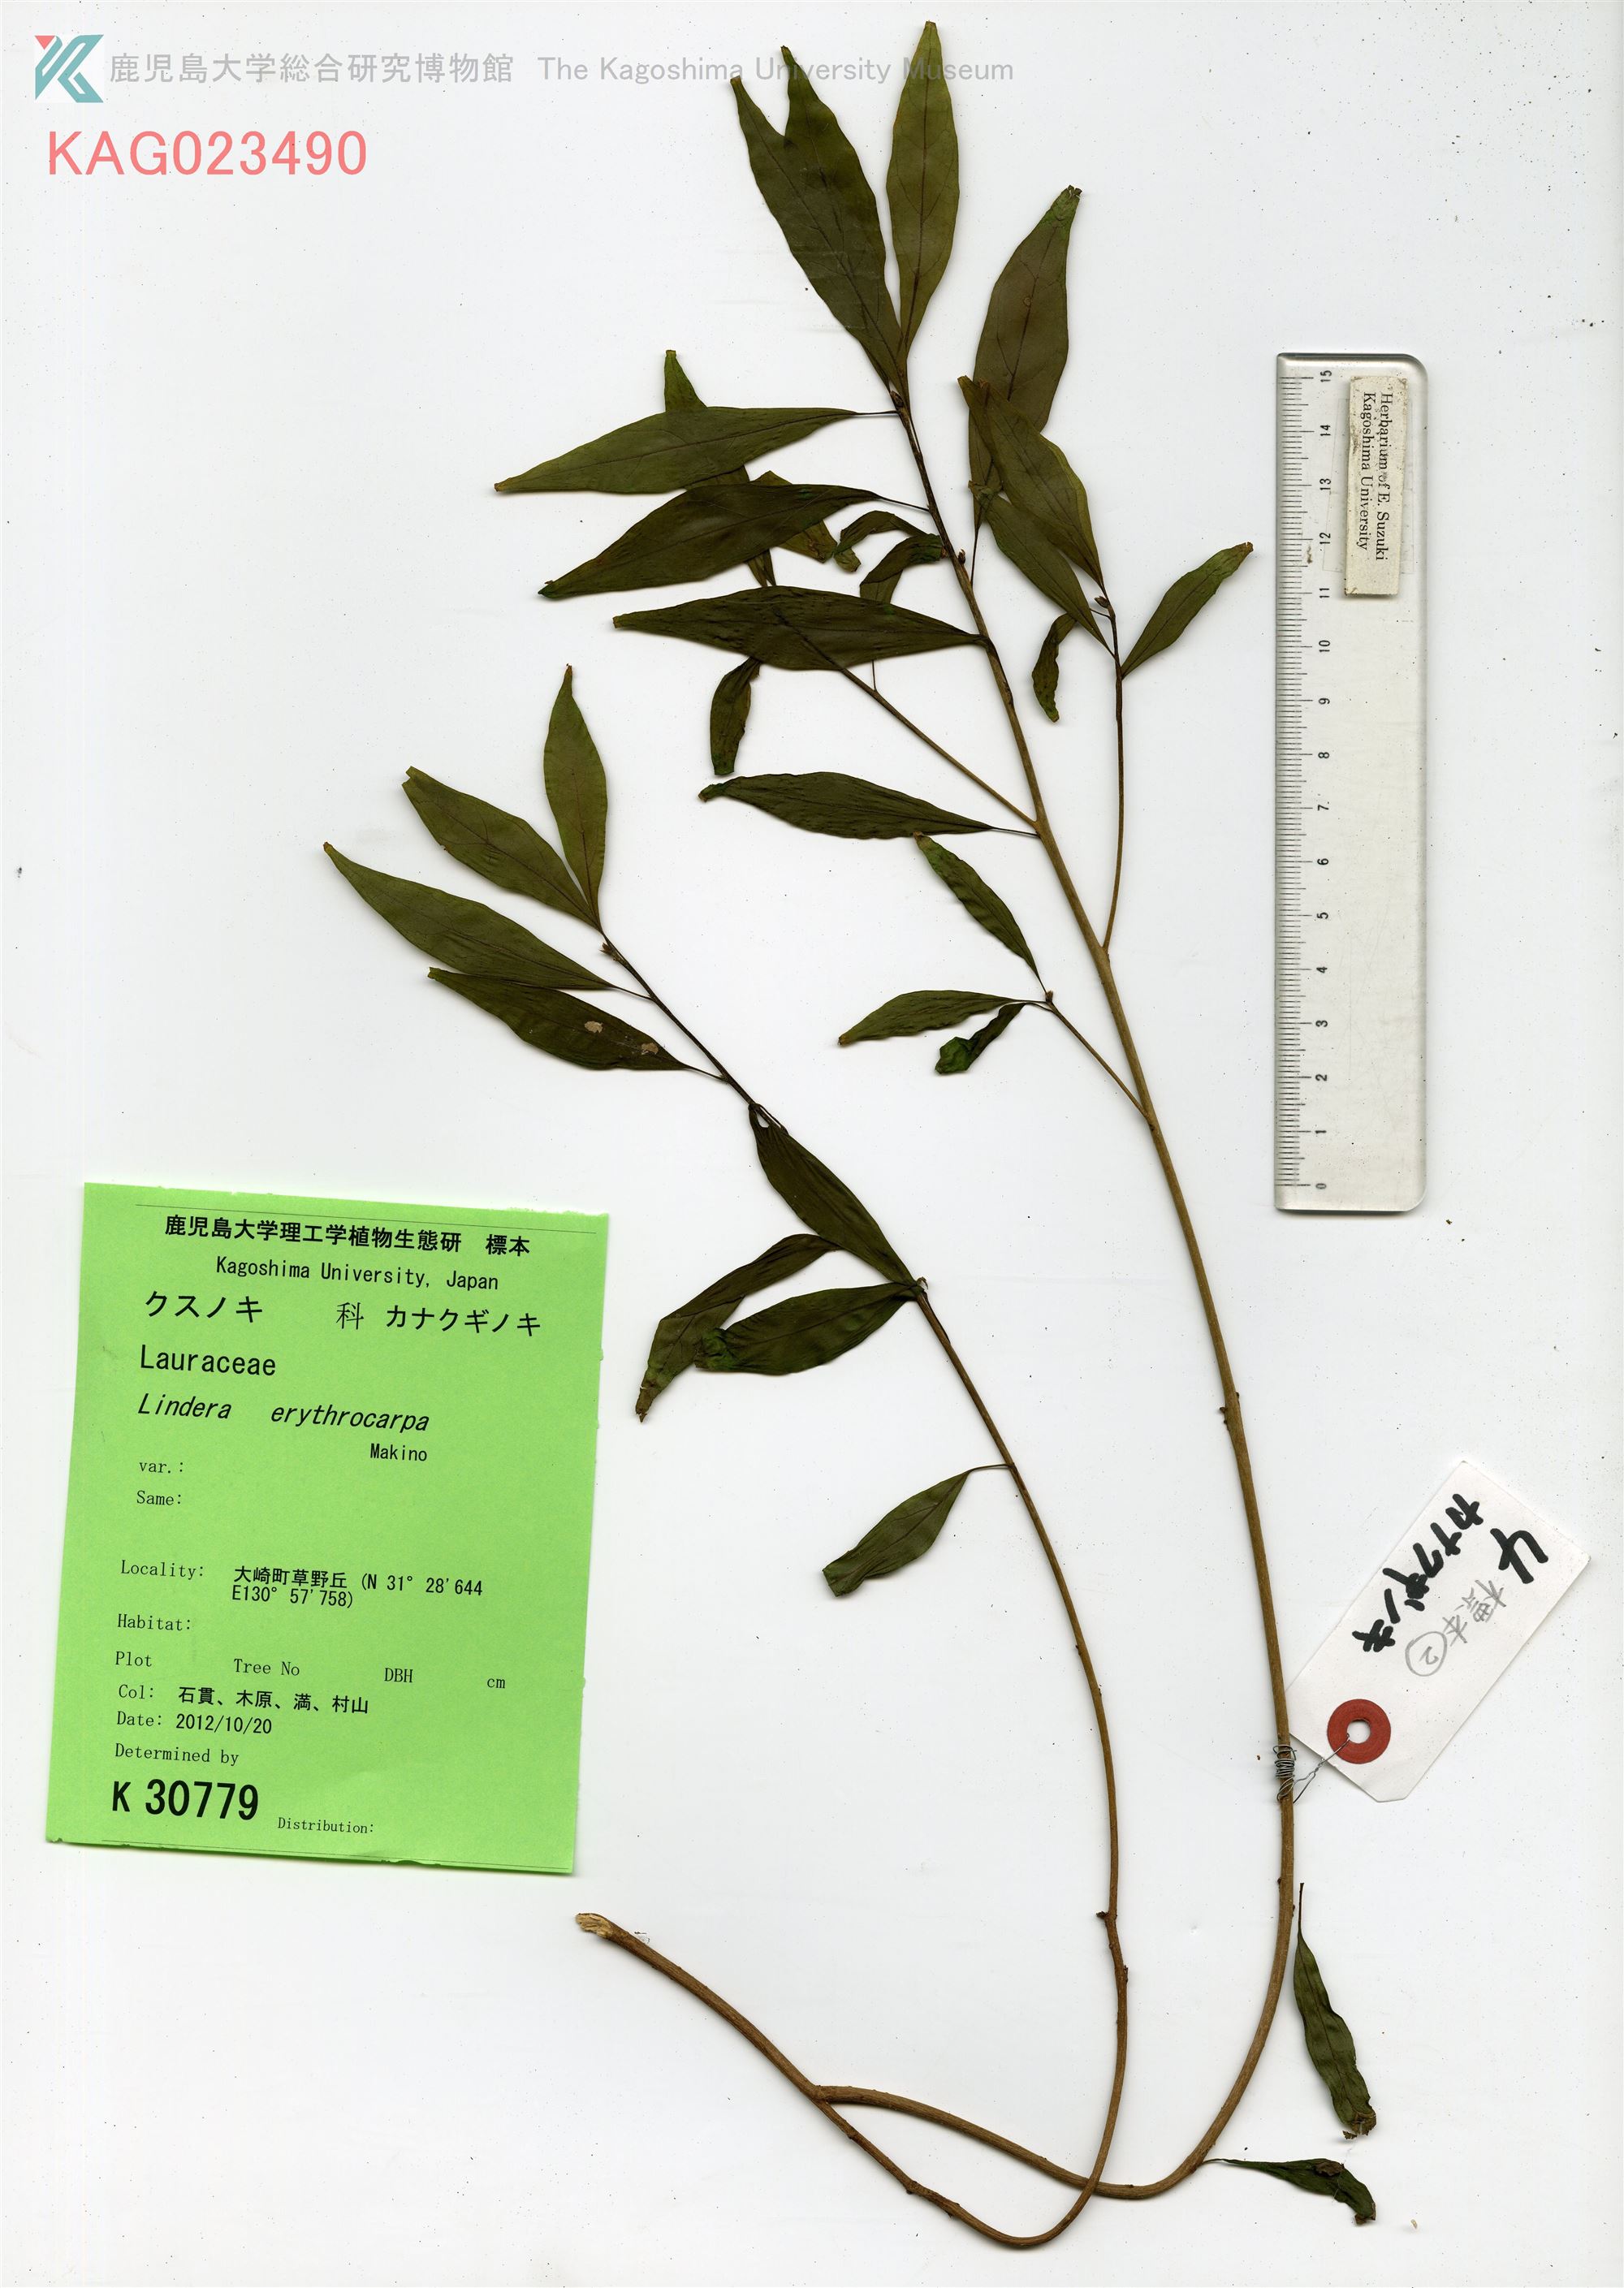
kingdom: Plantae
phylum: Tracheophyta
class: Magnoliopsida
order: Laurales
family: Lauraceae
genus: Lindera
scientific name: Lindera erythrocarpa
